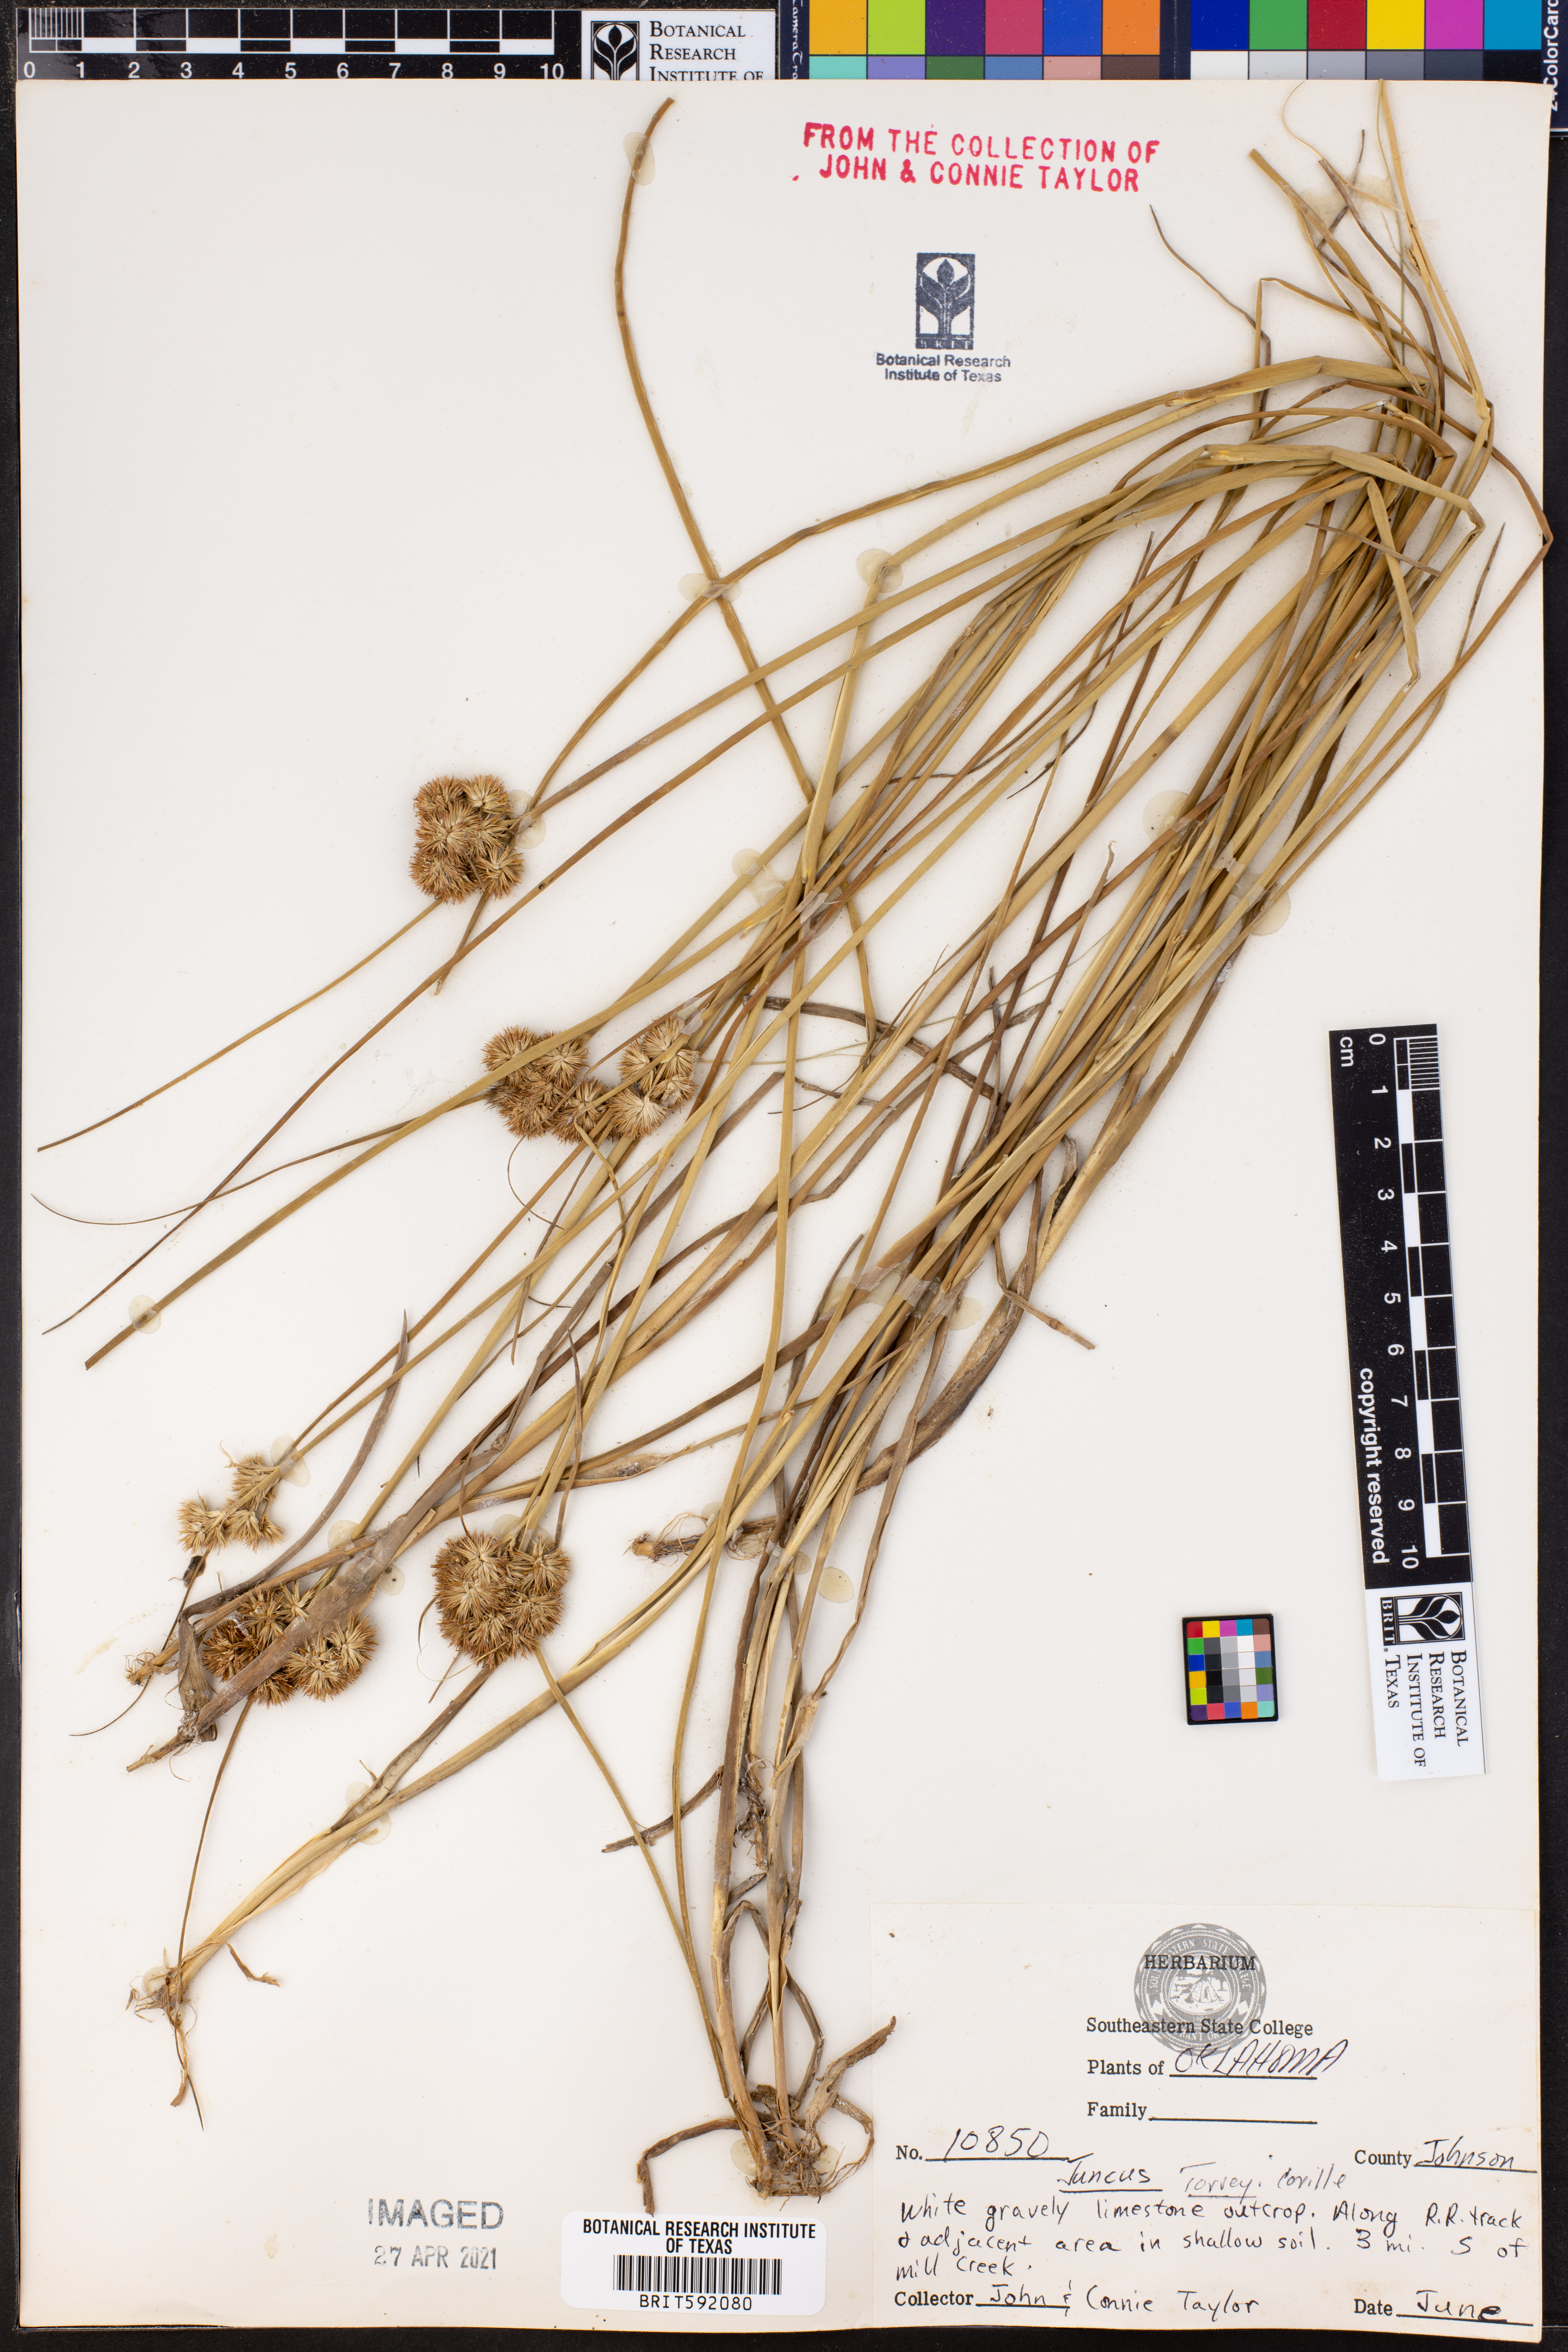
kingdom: Plantae
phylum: Tracheophyta
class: Liliopsida
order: Poales
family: Juncaceae
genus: Juncus
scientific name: Juncus torreyi
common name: Torrey's rush
